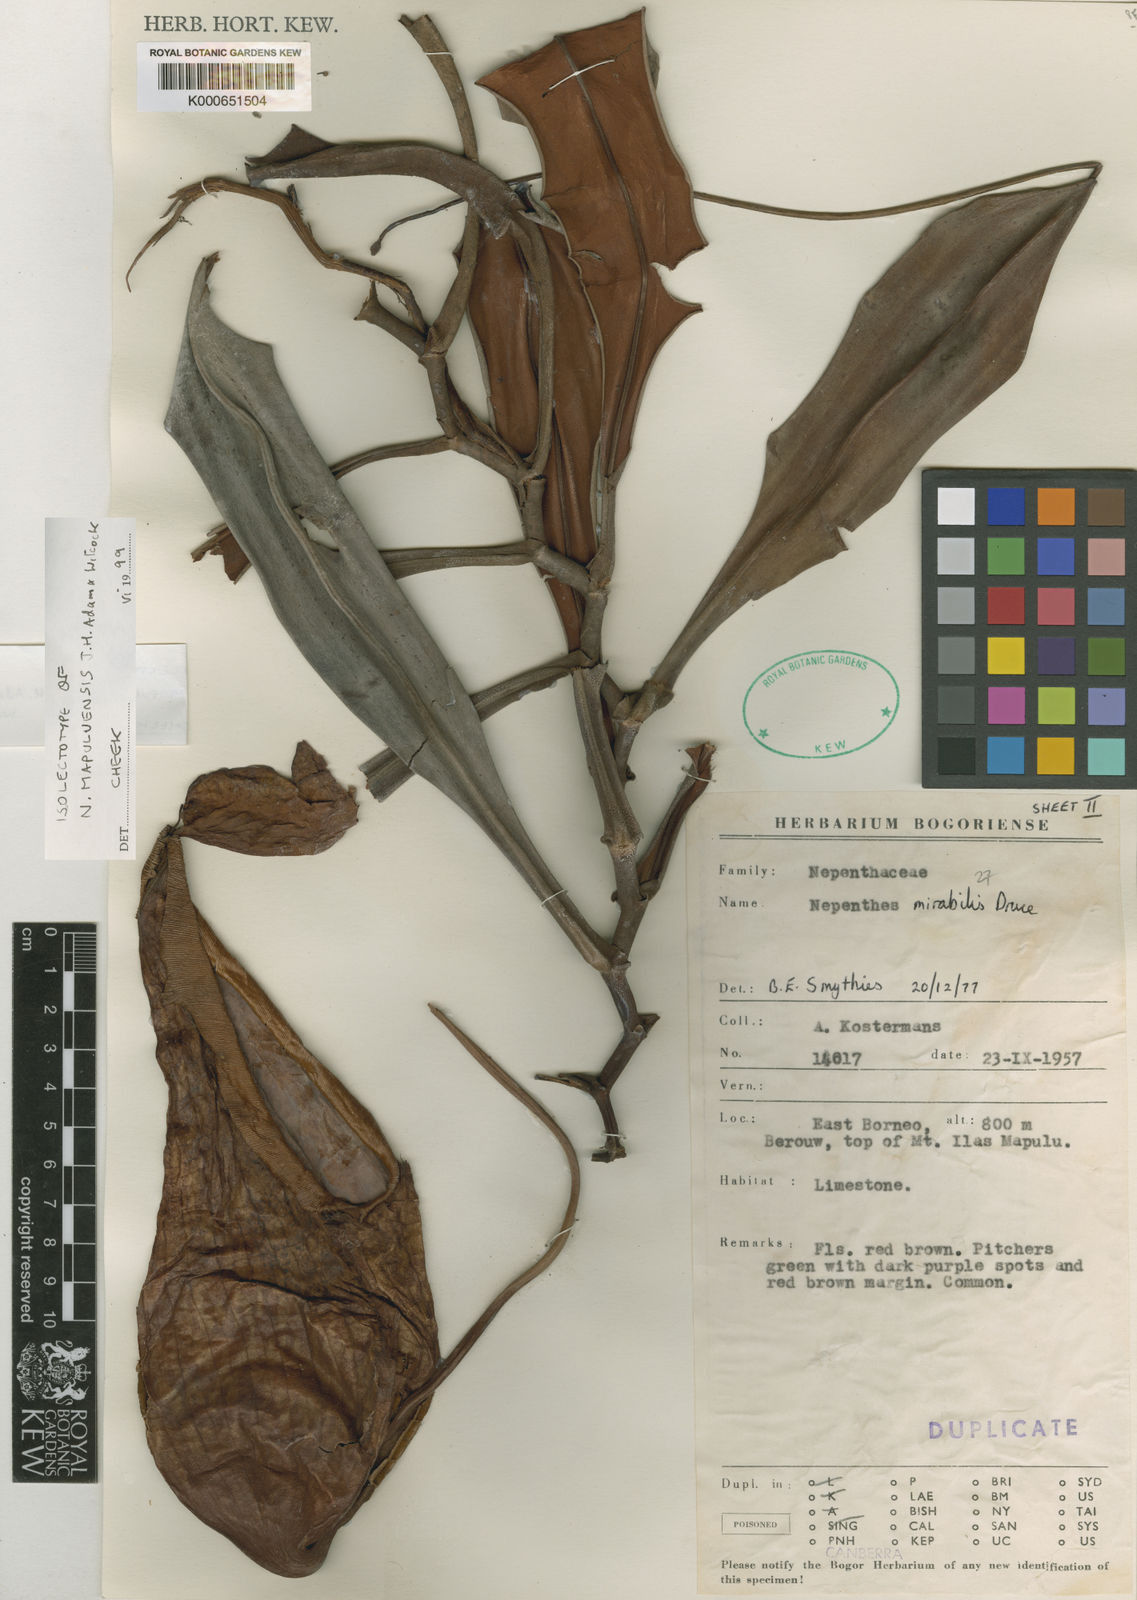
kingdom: Plantae
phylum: Tracheophyta
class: Magnoliopsida
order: Caryophyllales
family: Nepenthaceae
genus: Nepenthes
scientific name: Nepenthes mapuluensis
